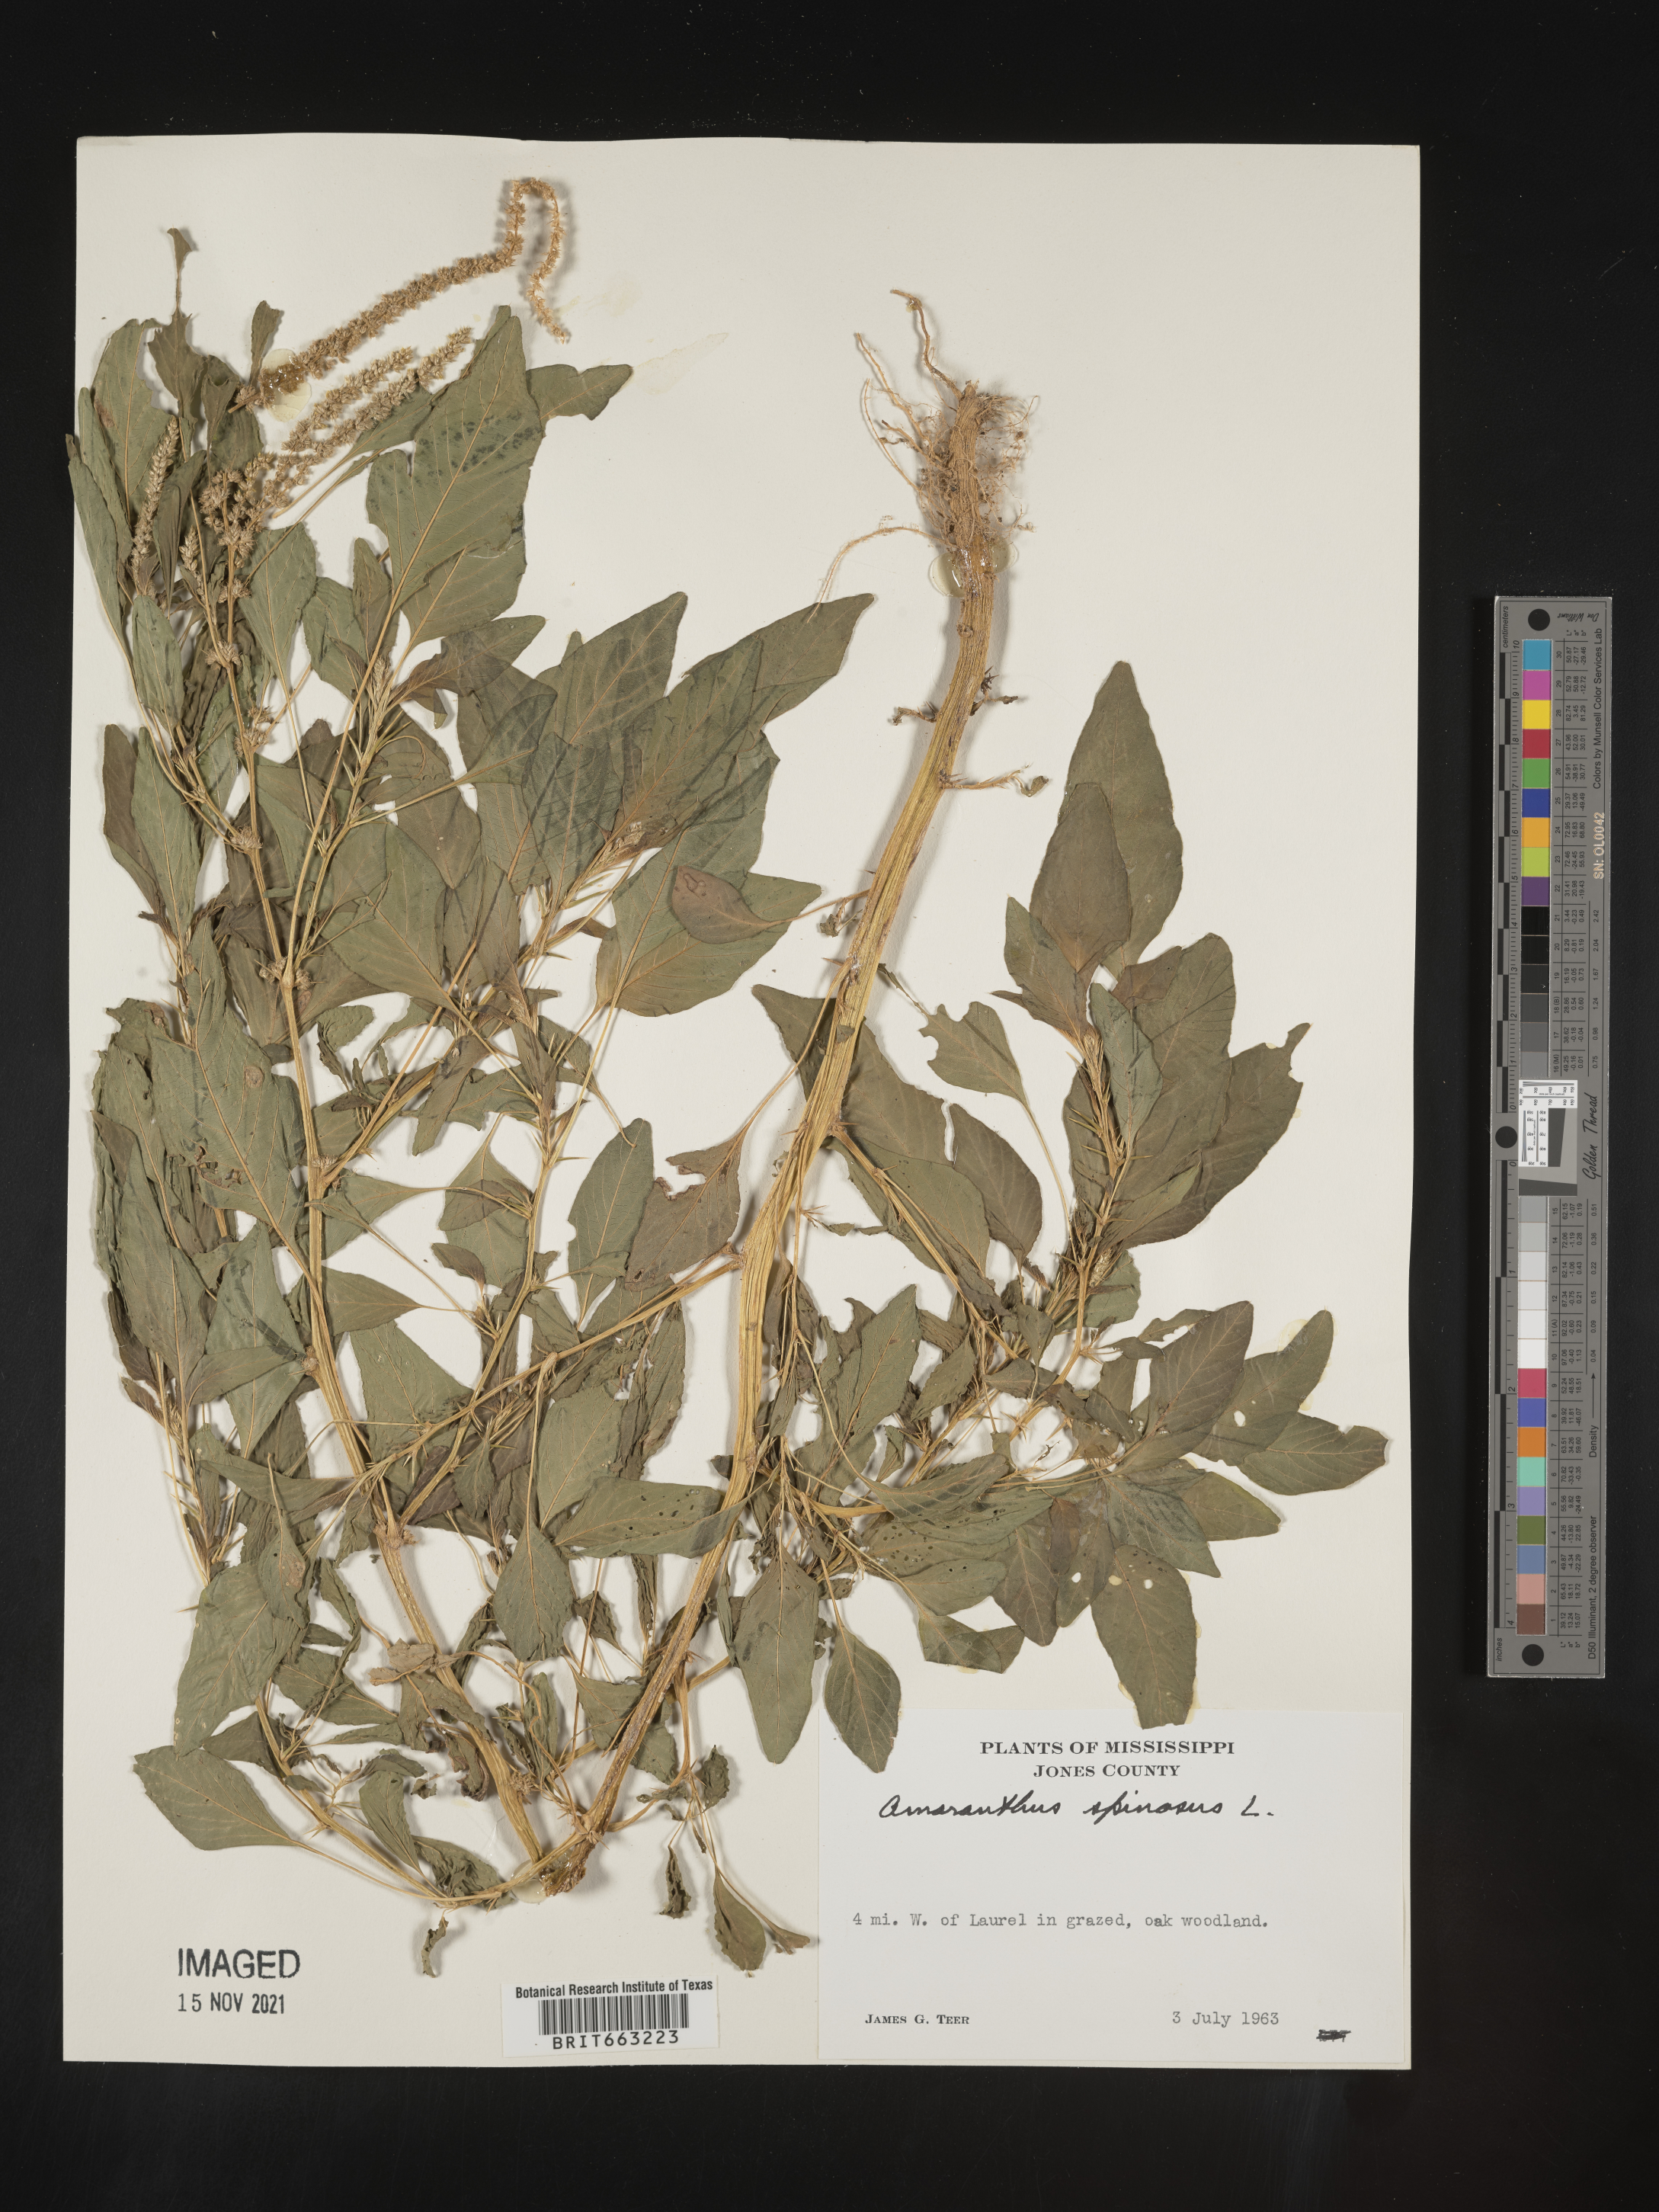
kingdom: Plantae
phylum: Tracheophyta
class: Magnoliopsida
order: Caryophyllales
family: Amaranthaceae
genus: Amaranthus
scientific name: Amaranthus spinosus
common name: Spiny amaranth
